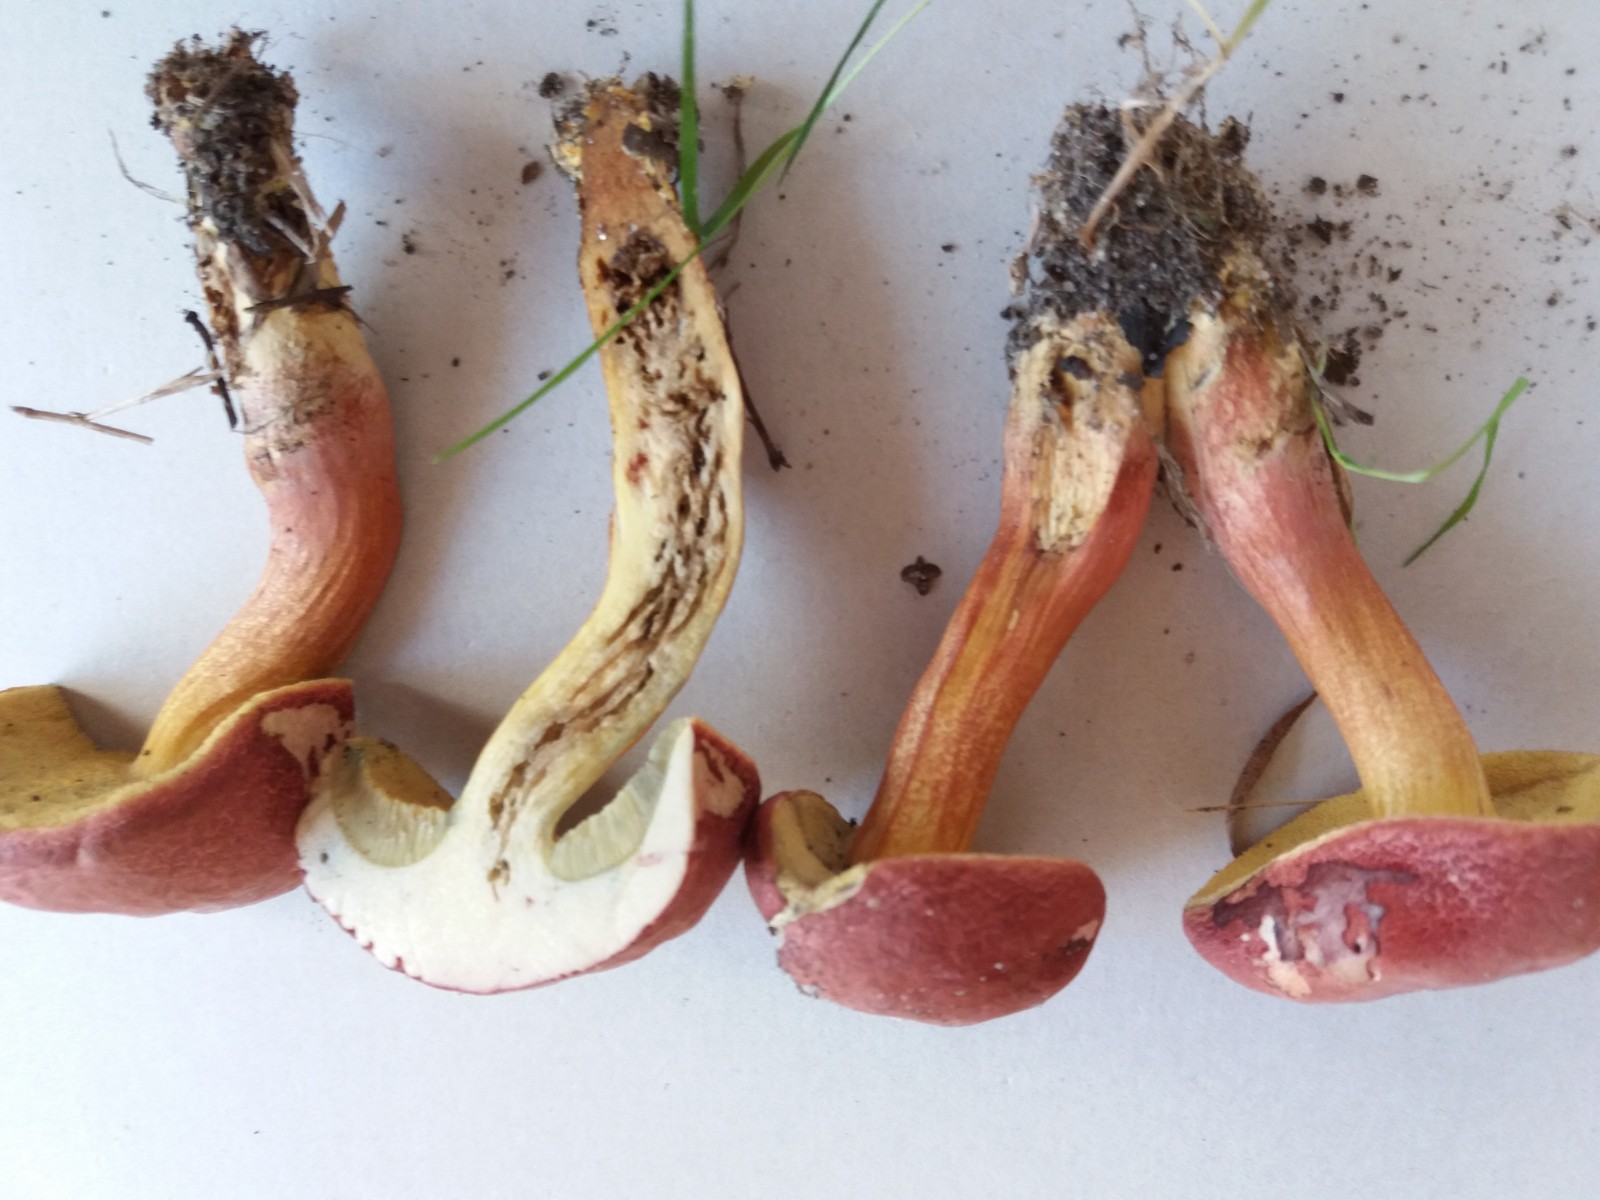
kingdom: Fungi
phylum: Basidiomycota
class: Agaricomycetes
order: Boletales
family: Boletaceae
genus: Hortiboletus
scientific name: Hortiboletus rubellus
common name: blodrød rørhat
